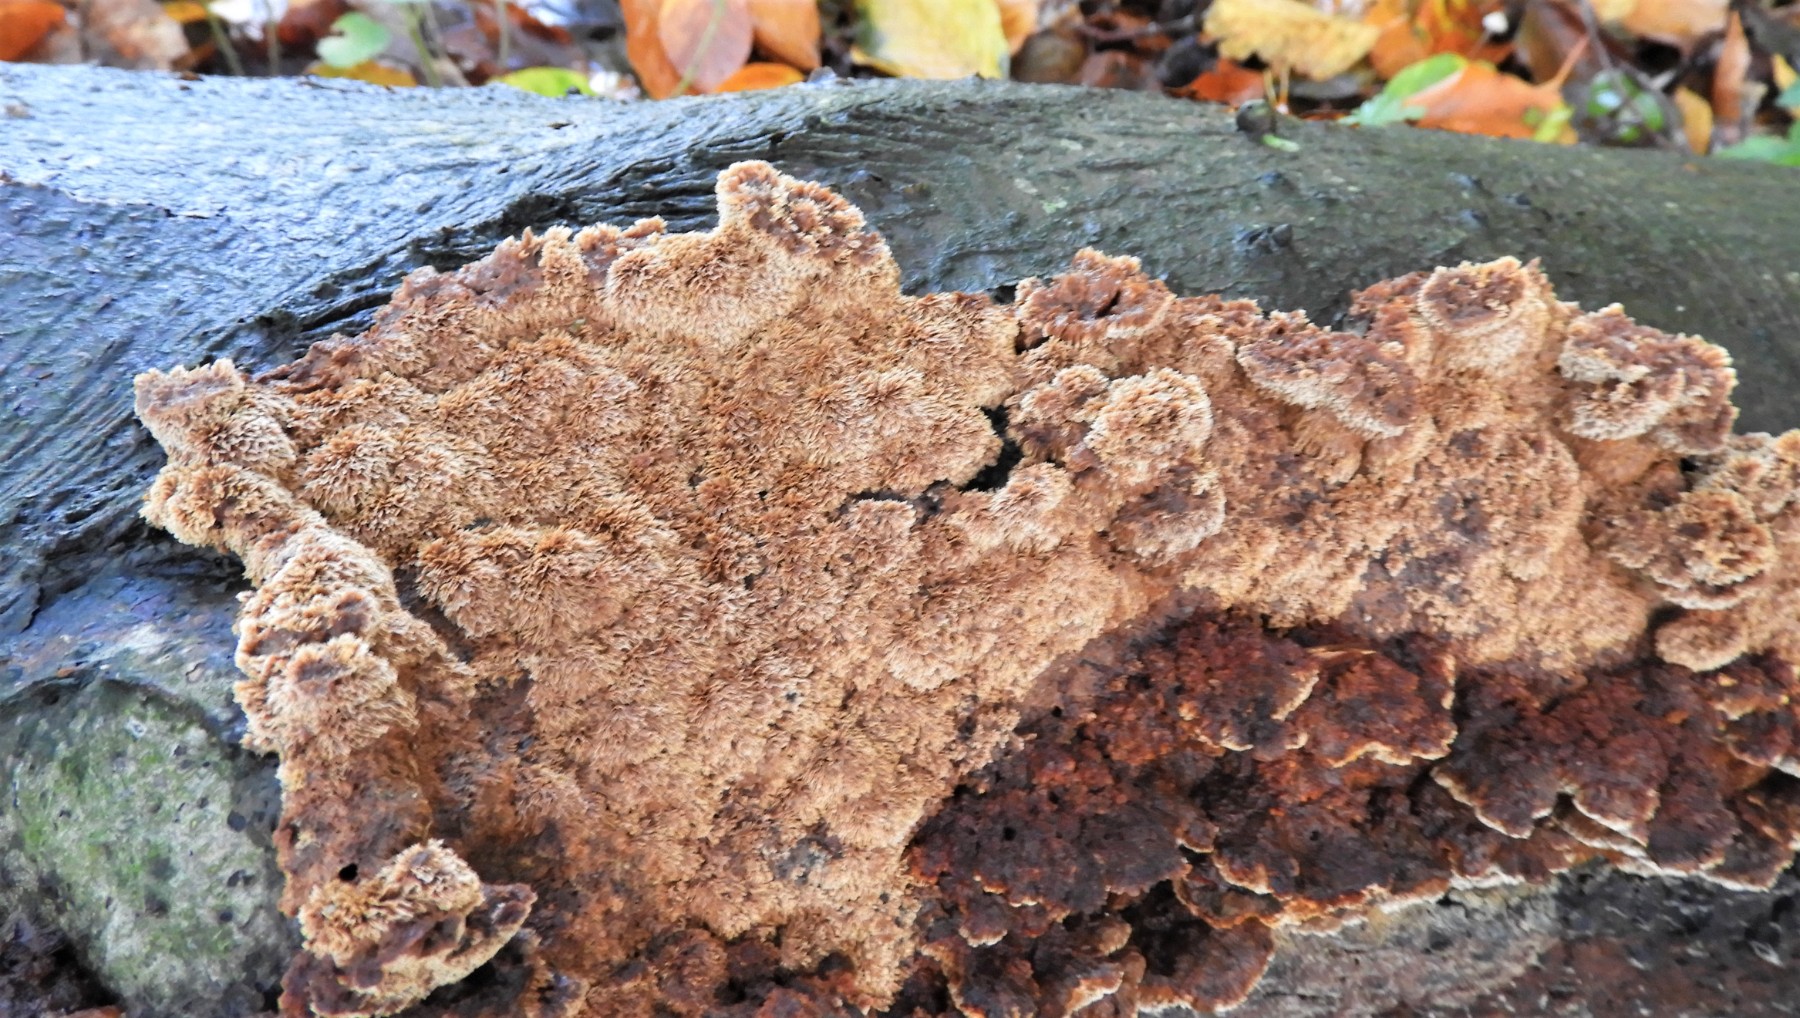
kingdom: Fungi
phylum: Basidiomycota
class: Agaricomycetes
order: Hymenochaetales
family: Hymenochaetaceae
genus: Mensularia
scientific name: Mensularia nodulosa
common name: bøge-spejlporesvamp
